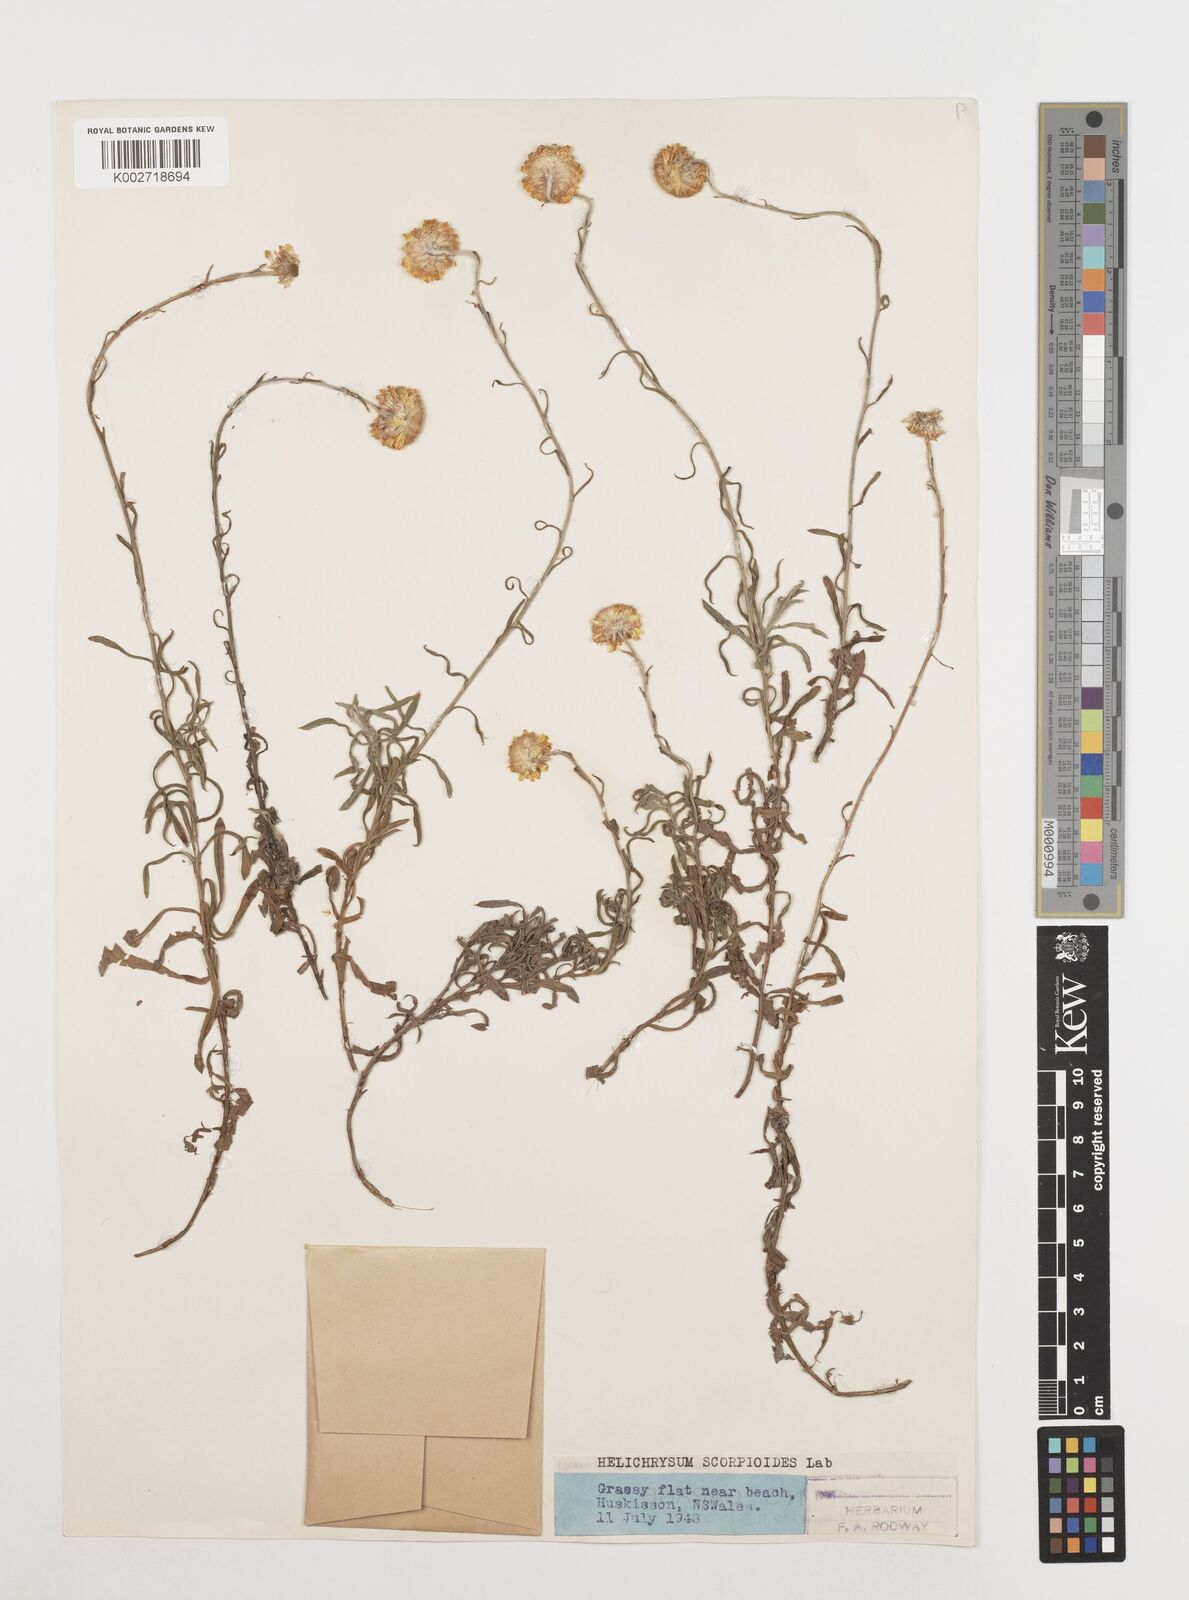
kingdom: Plantae
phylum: Tracheophyta
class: Magnoliopsida
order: Asterales
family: Asteraceae
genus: Coronidium
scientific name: Coronidium scorpioides
